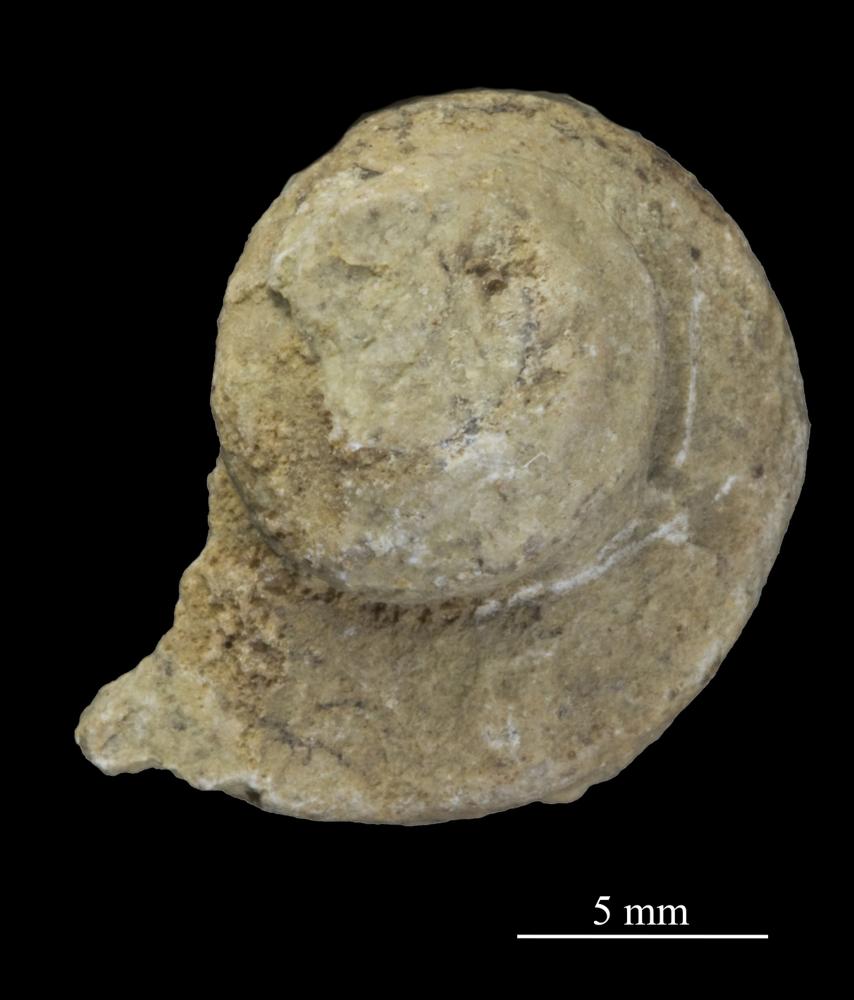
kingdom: Animalia
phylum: Mollusca
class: Gastropoda
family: Lophospiridae
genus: Loxoplocus
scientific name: Loxoplocus Lophospira sedgwicki
